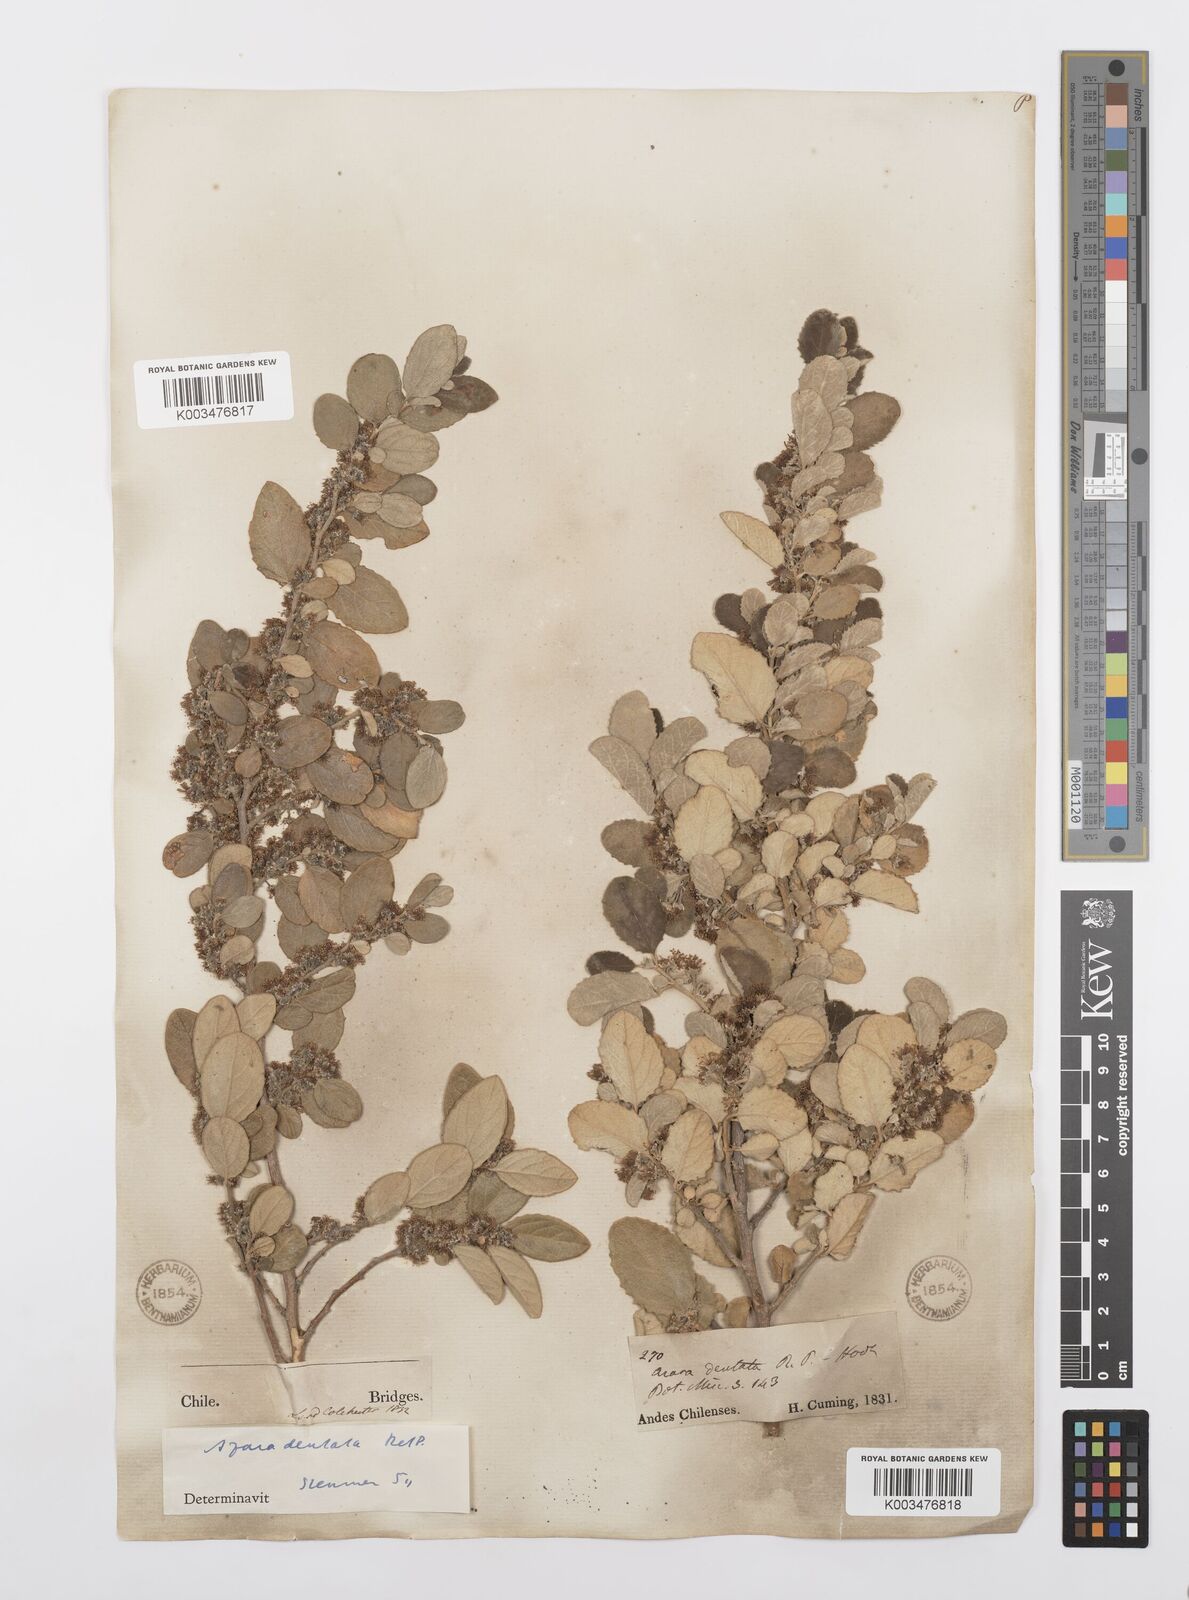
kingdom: Plantae
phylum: Tracheophyta
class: Magnoliopsida
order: Malpighiales
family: Salicaceae
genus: Azara
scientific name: Azara dentata
